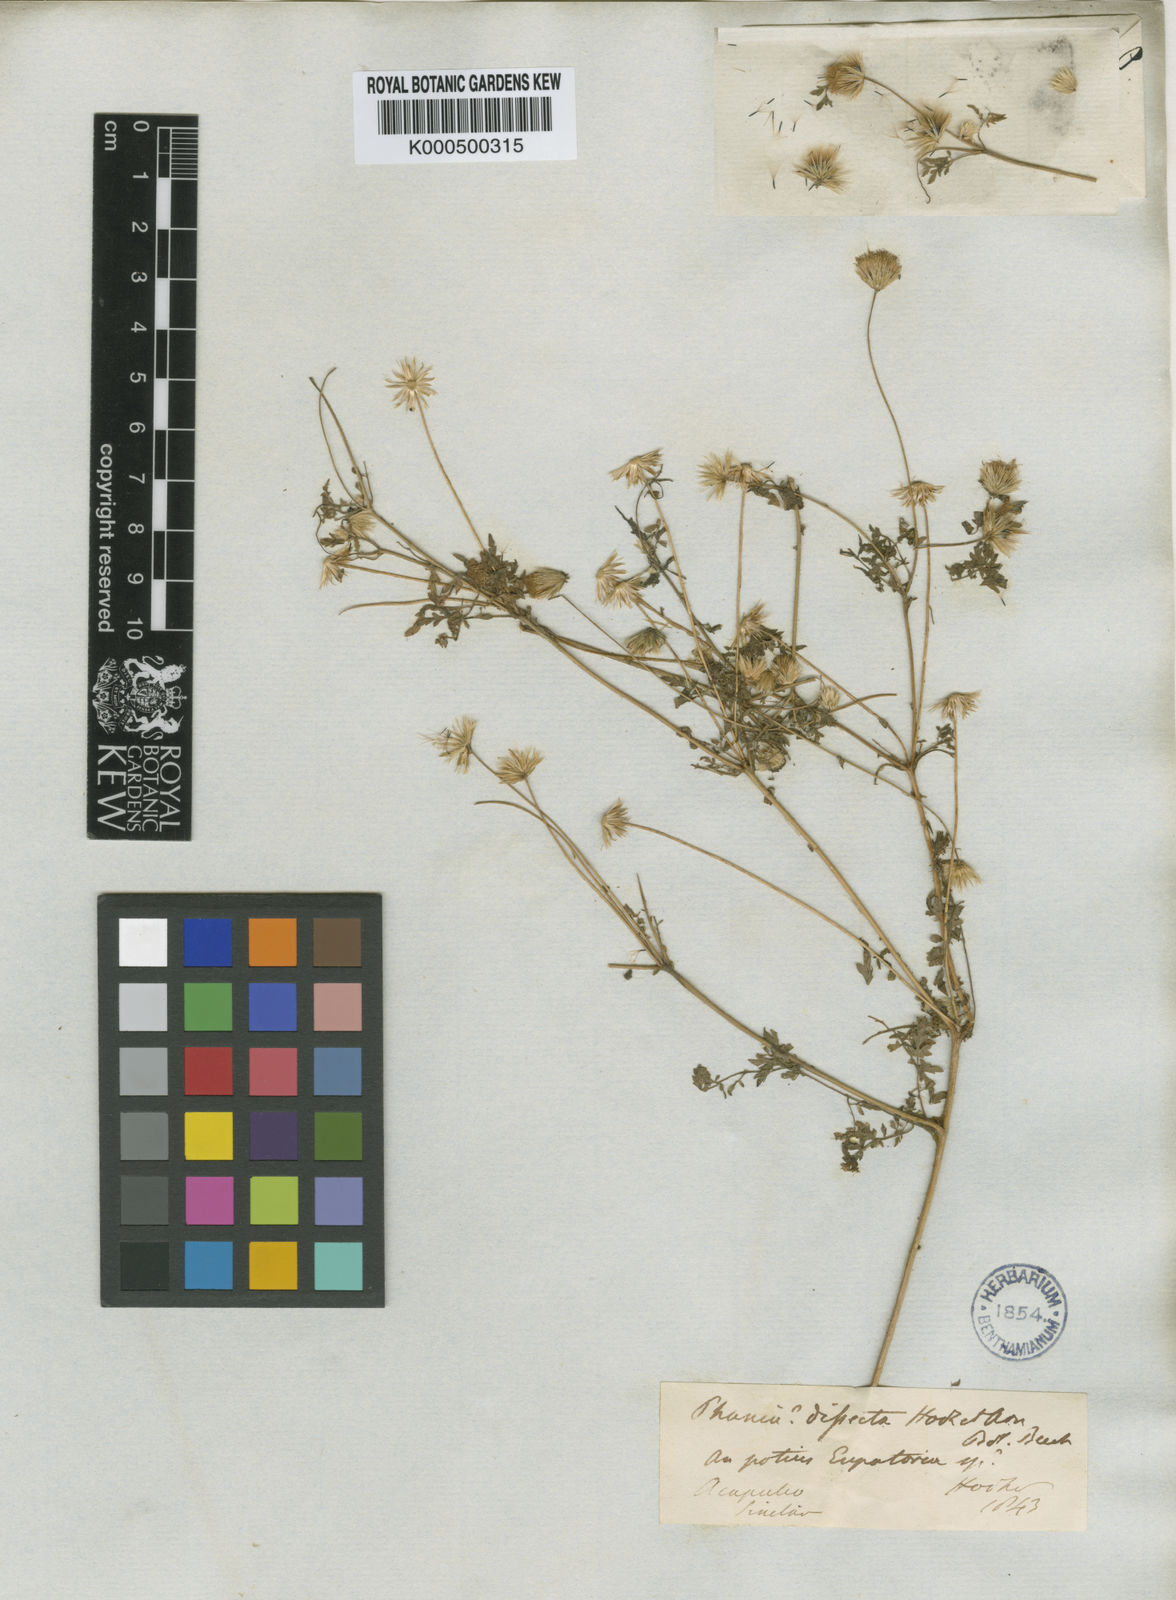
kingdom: Plantae
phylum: Tracheophyta
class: Magnoliopsida
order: Asterales
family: Asteraceae
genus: Hofmeisteria
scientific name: Hofmeisteria dissecta
